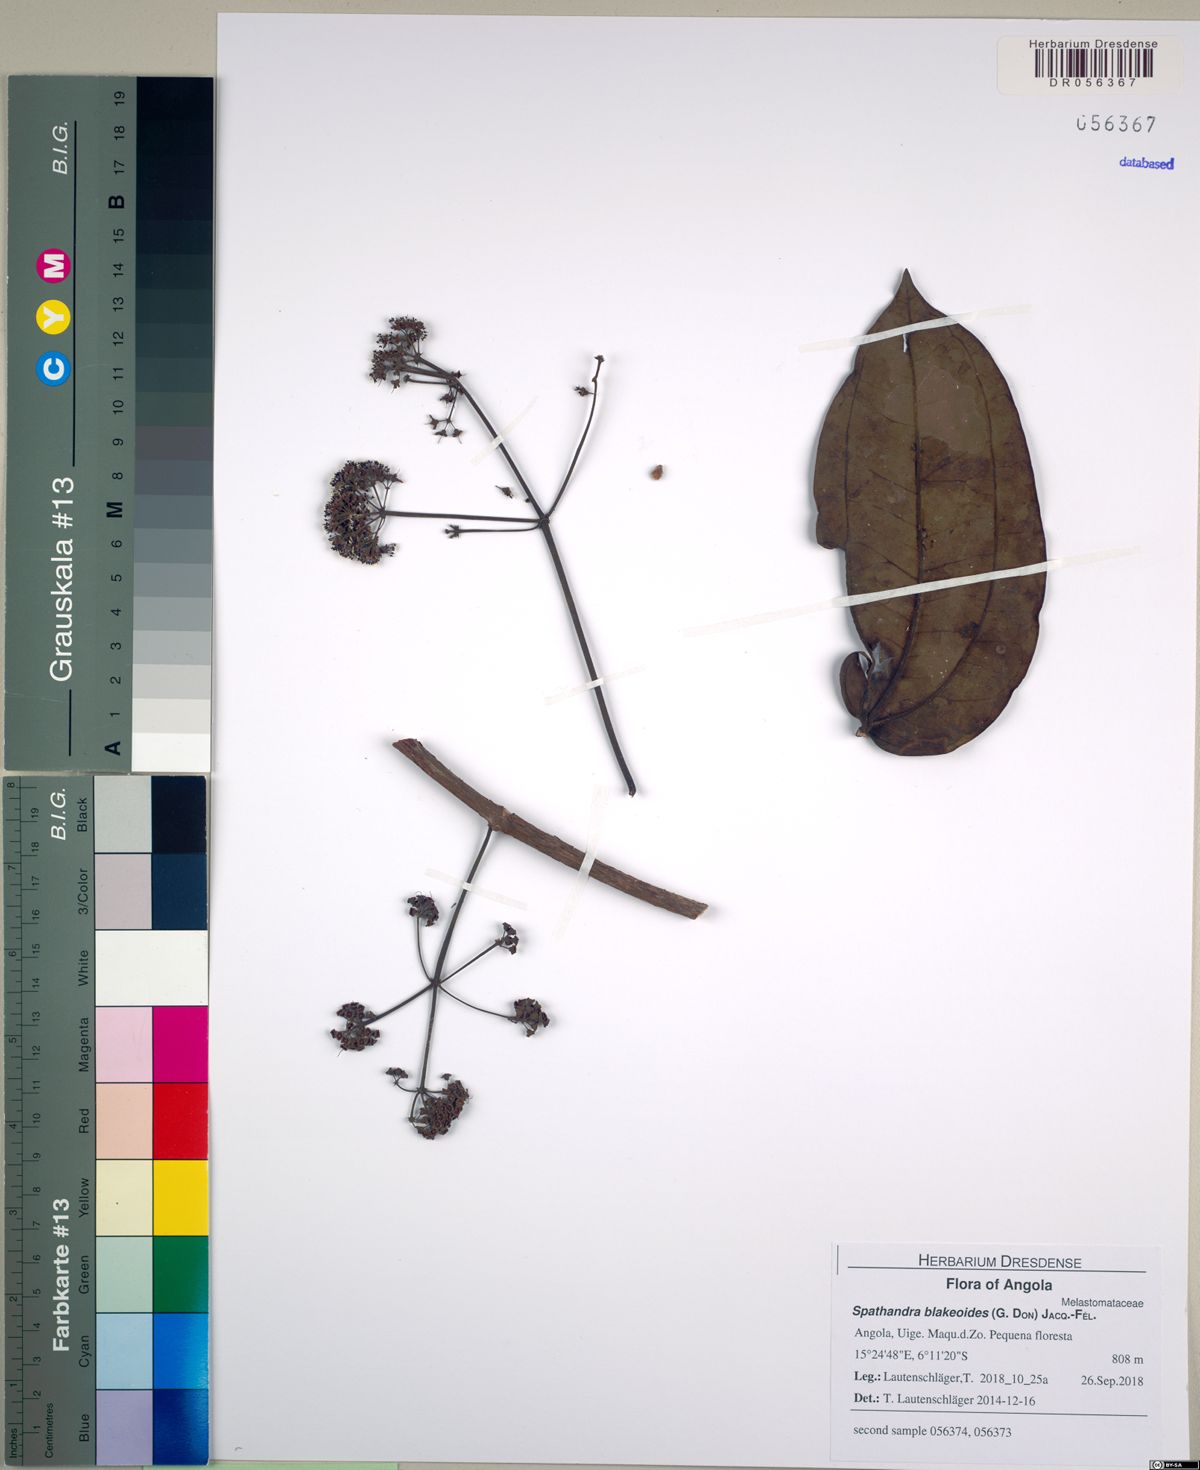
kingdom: Plantae
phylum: Tracheophyta
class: Magnoliopsida
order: Myrtales
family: Melastomataceae
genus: Spathandra
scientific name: Spathandra blakeoides
